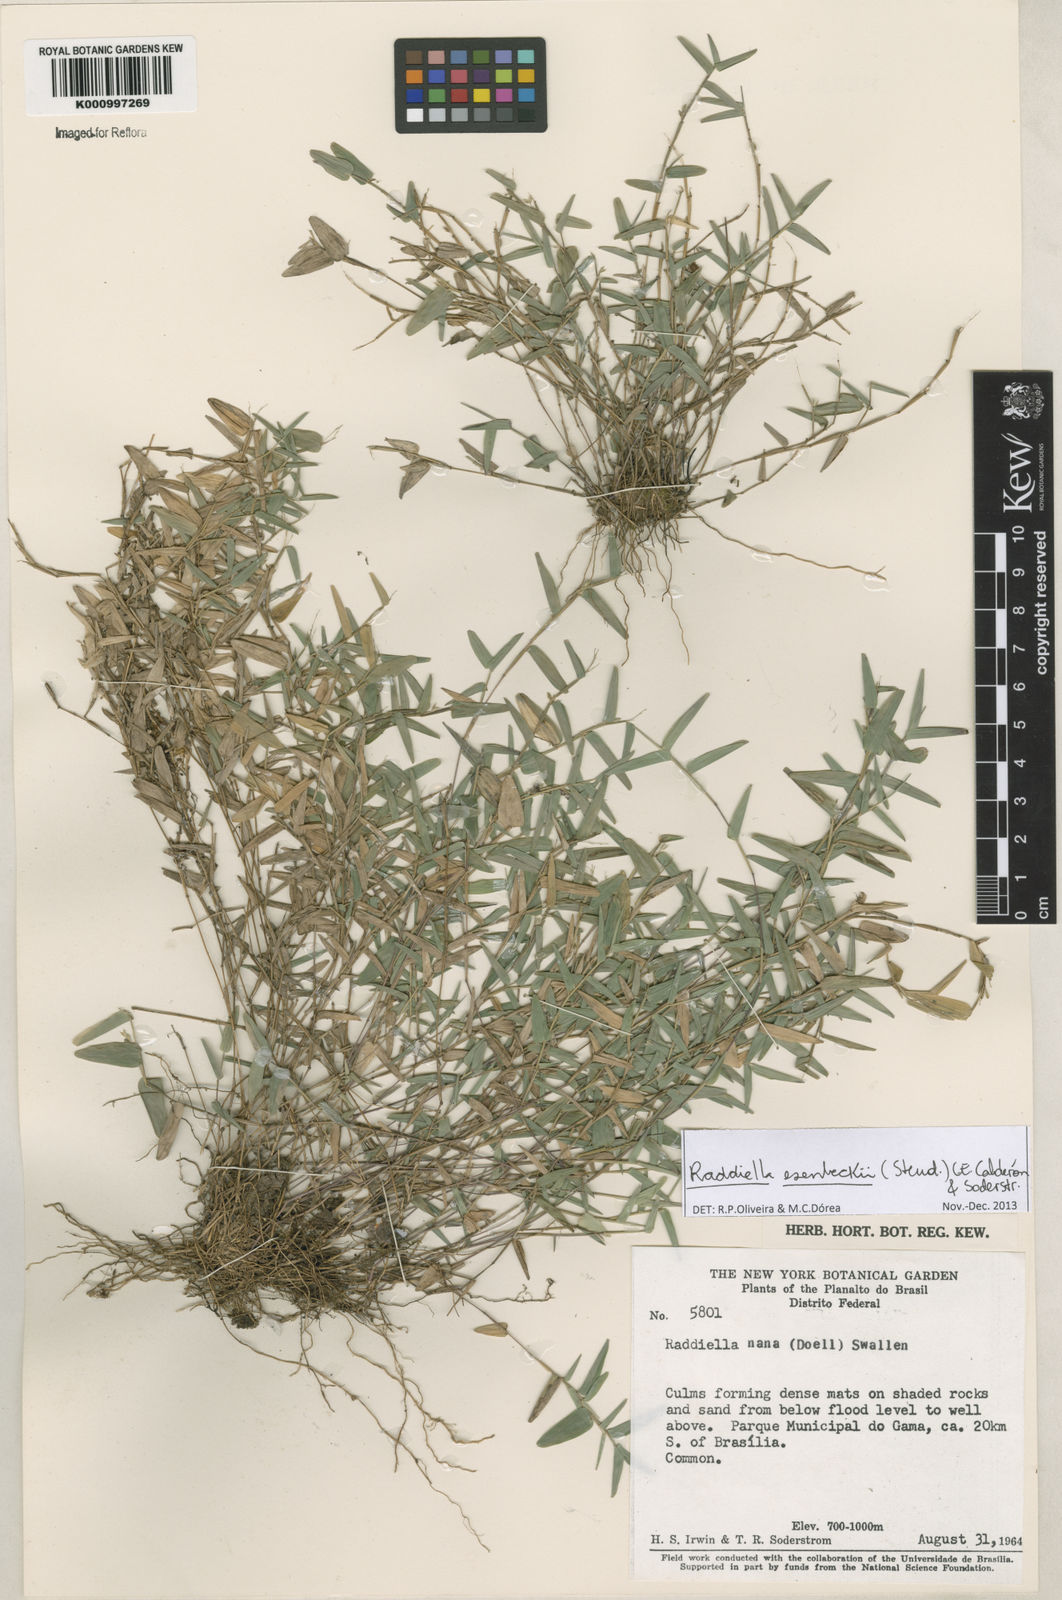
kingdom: Plantae
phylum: Tracheophyta
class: Liliopsida
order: Poales
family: Poaceae
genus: Raddiella
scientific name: Raddiella
